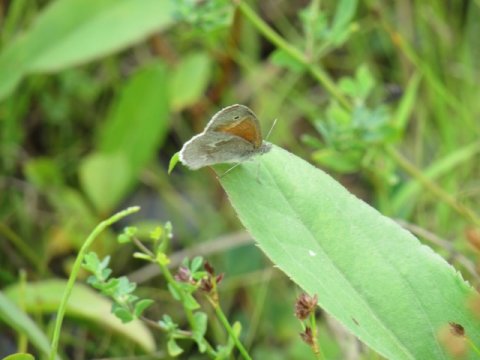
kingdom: Animalia
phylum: Arthropoda
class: Insecta
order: Lepidoptera
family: Nymphalidae
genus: Coenonympha
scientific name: Coenonympha tullia
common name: Large Heath
